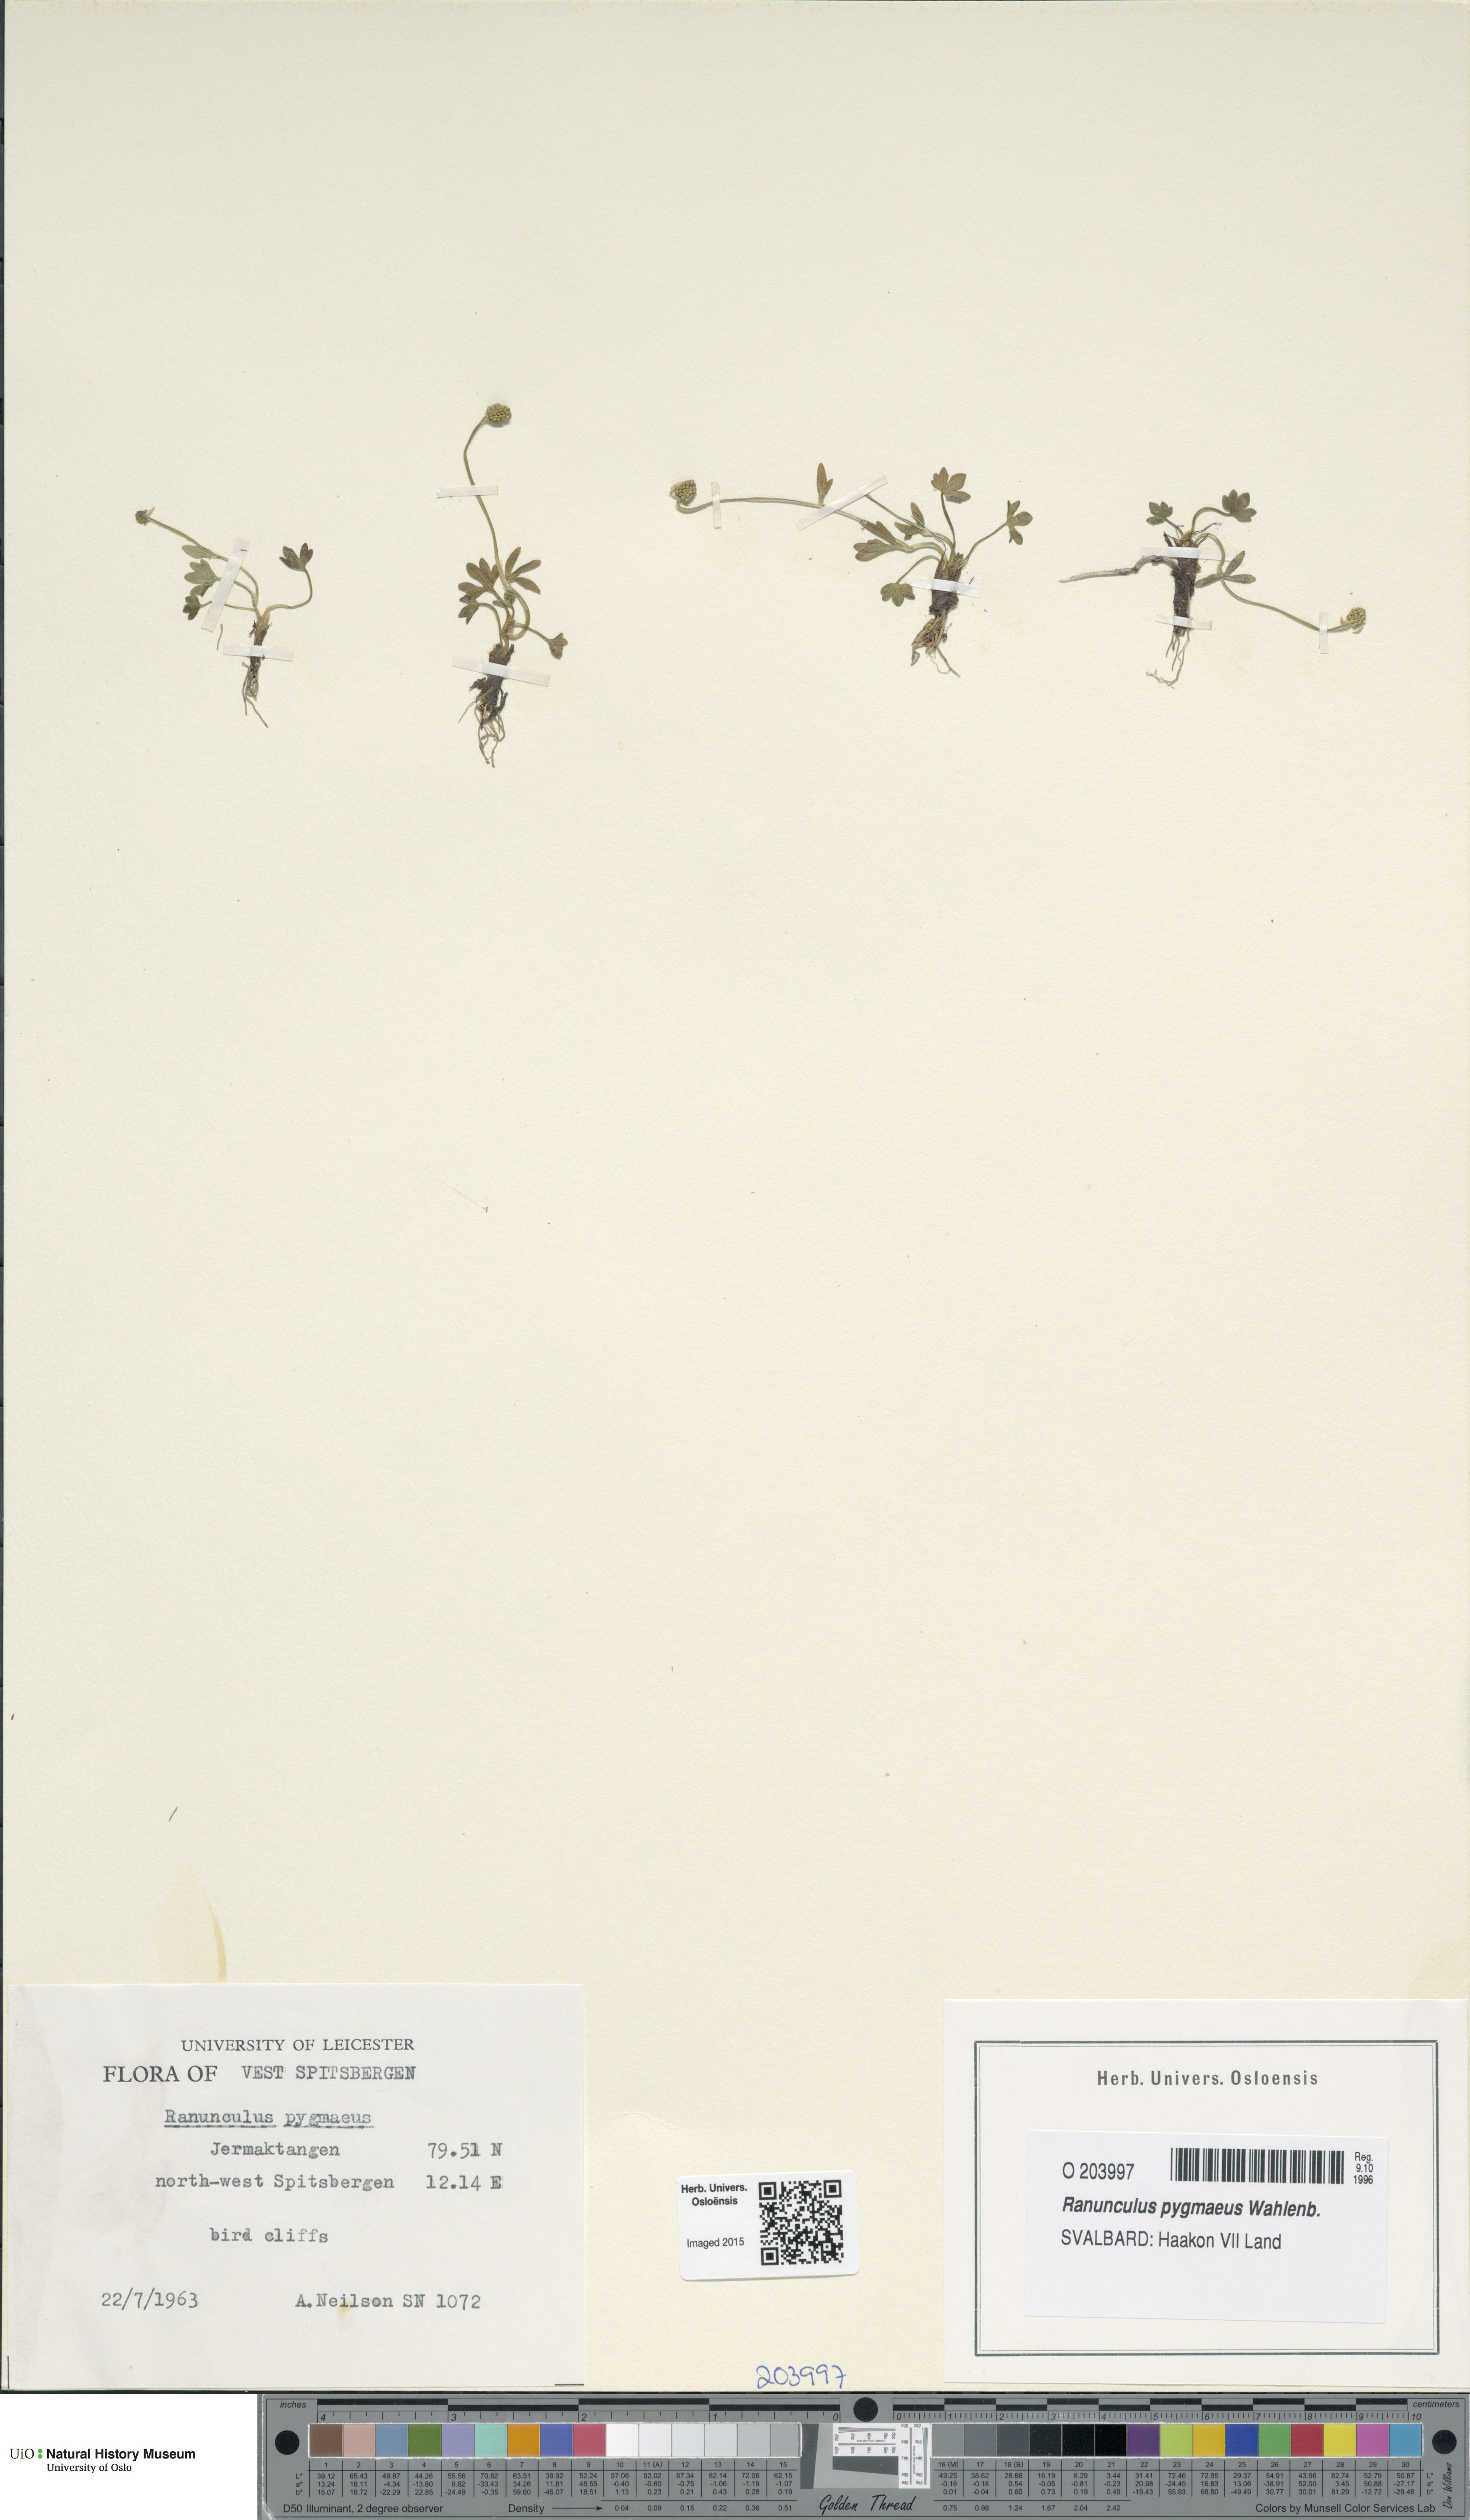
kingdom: Plantae
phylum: Tracheophyta
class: Magnoliopsida
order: Ranunculales
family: Ranunculaceae
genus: Ranunculus
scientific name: Ranunculus pygmaeus
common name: Dwarf buttercup
